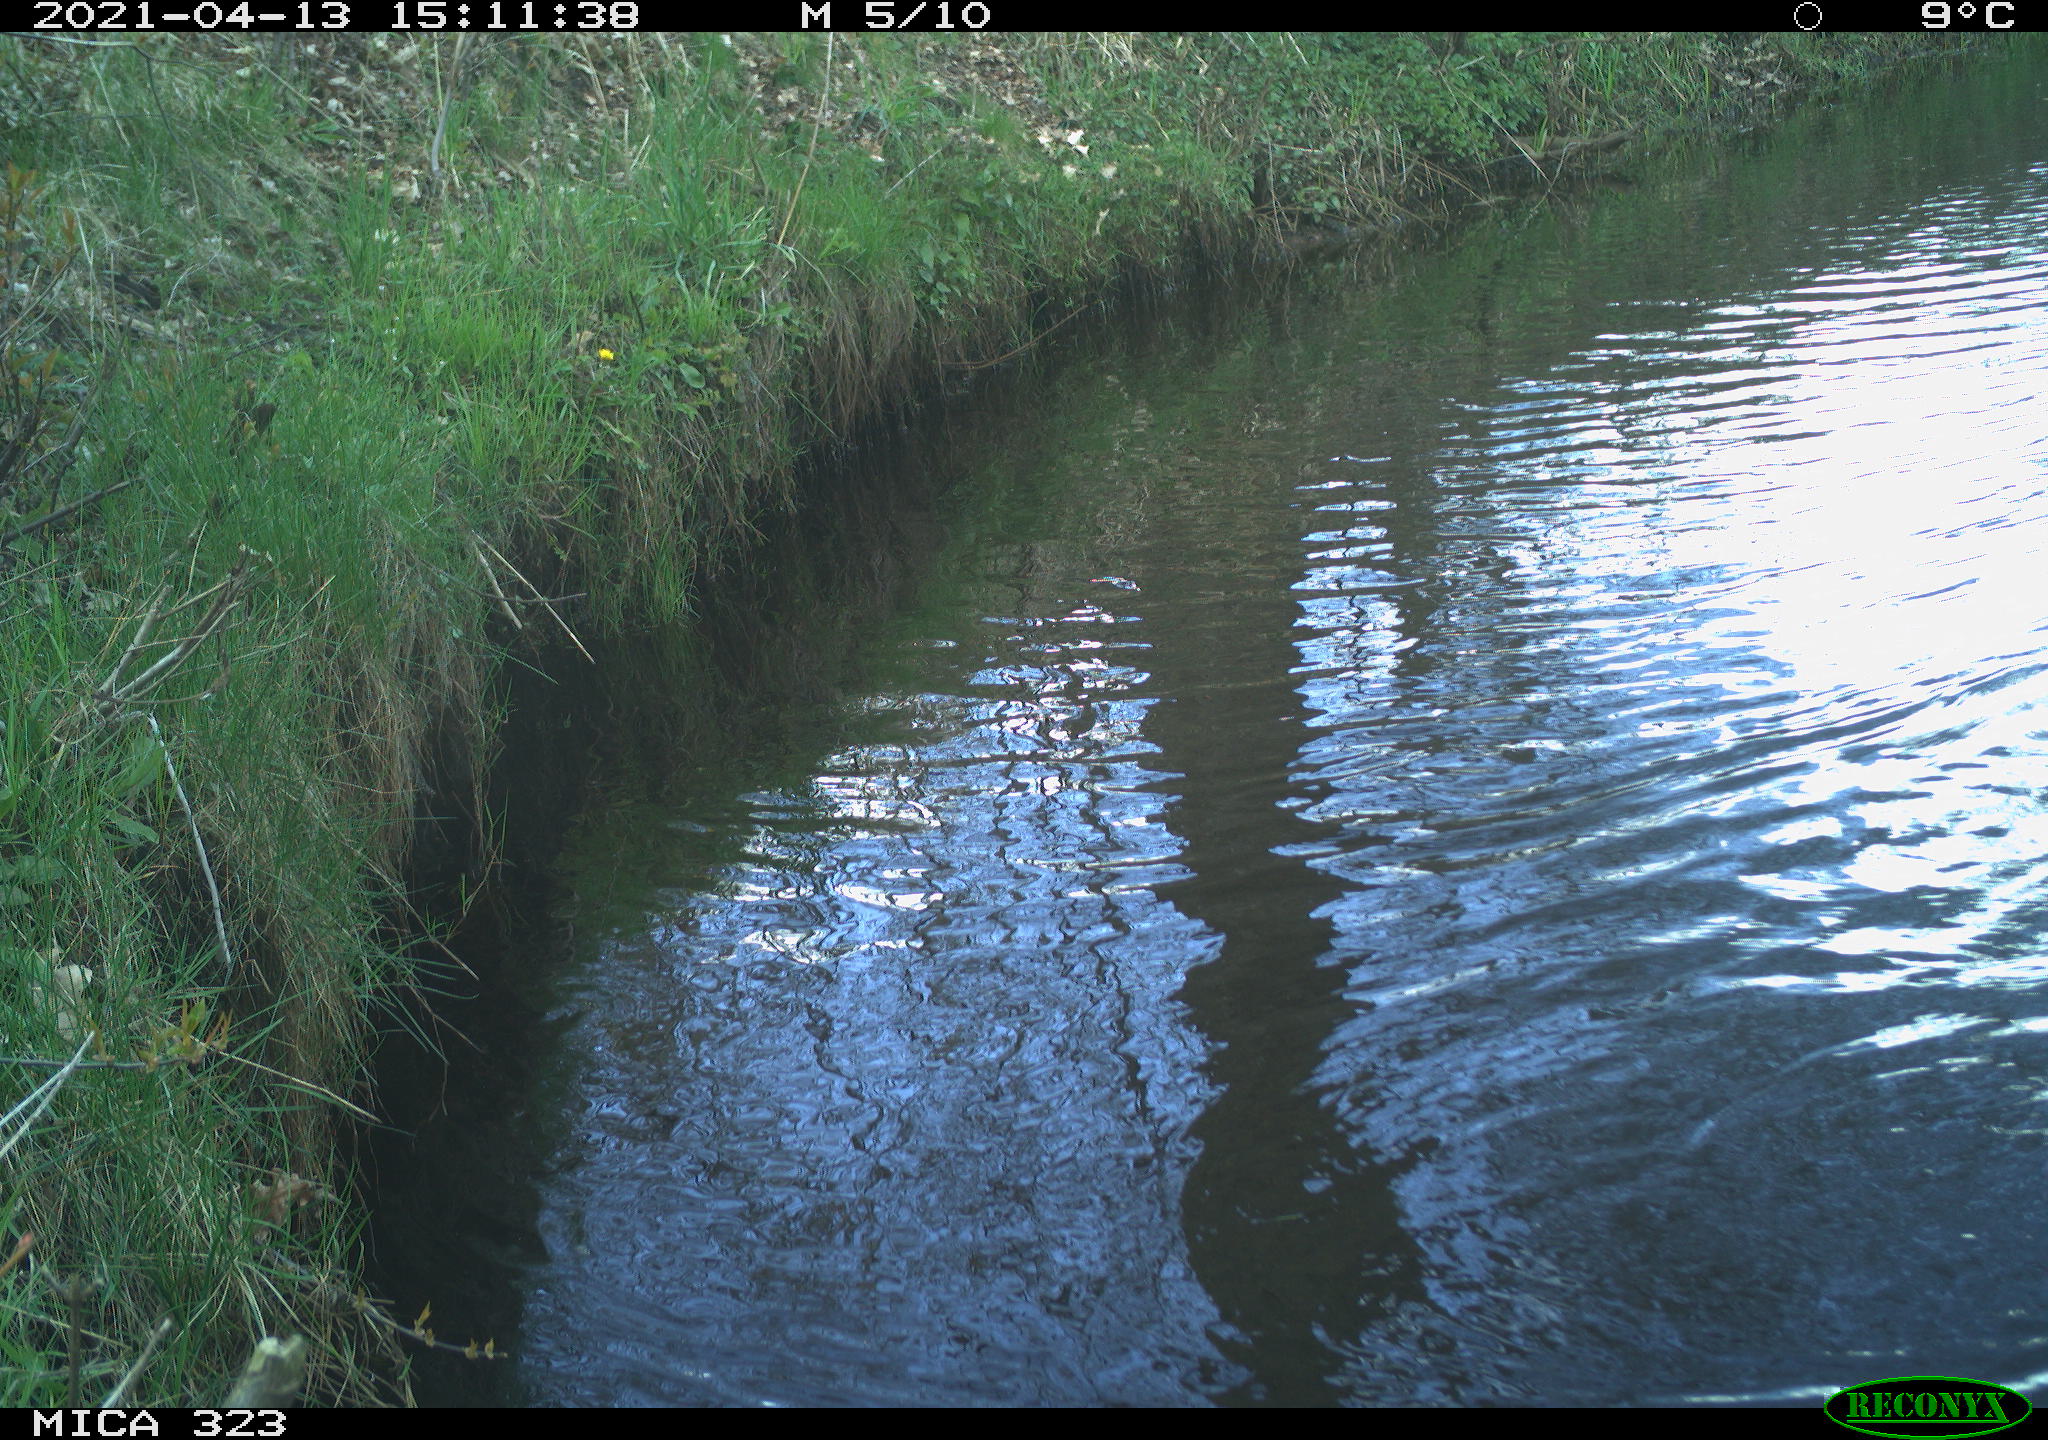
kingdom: Animalia
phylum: Chordata
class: Aves
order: Anseriformes
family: Anatidae
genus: Anas
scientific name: Anas platyrhynchos
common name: Mallard
